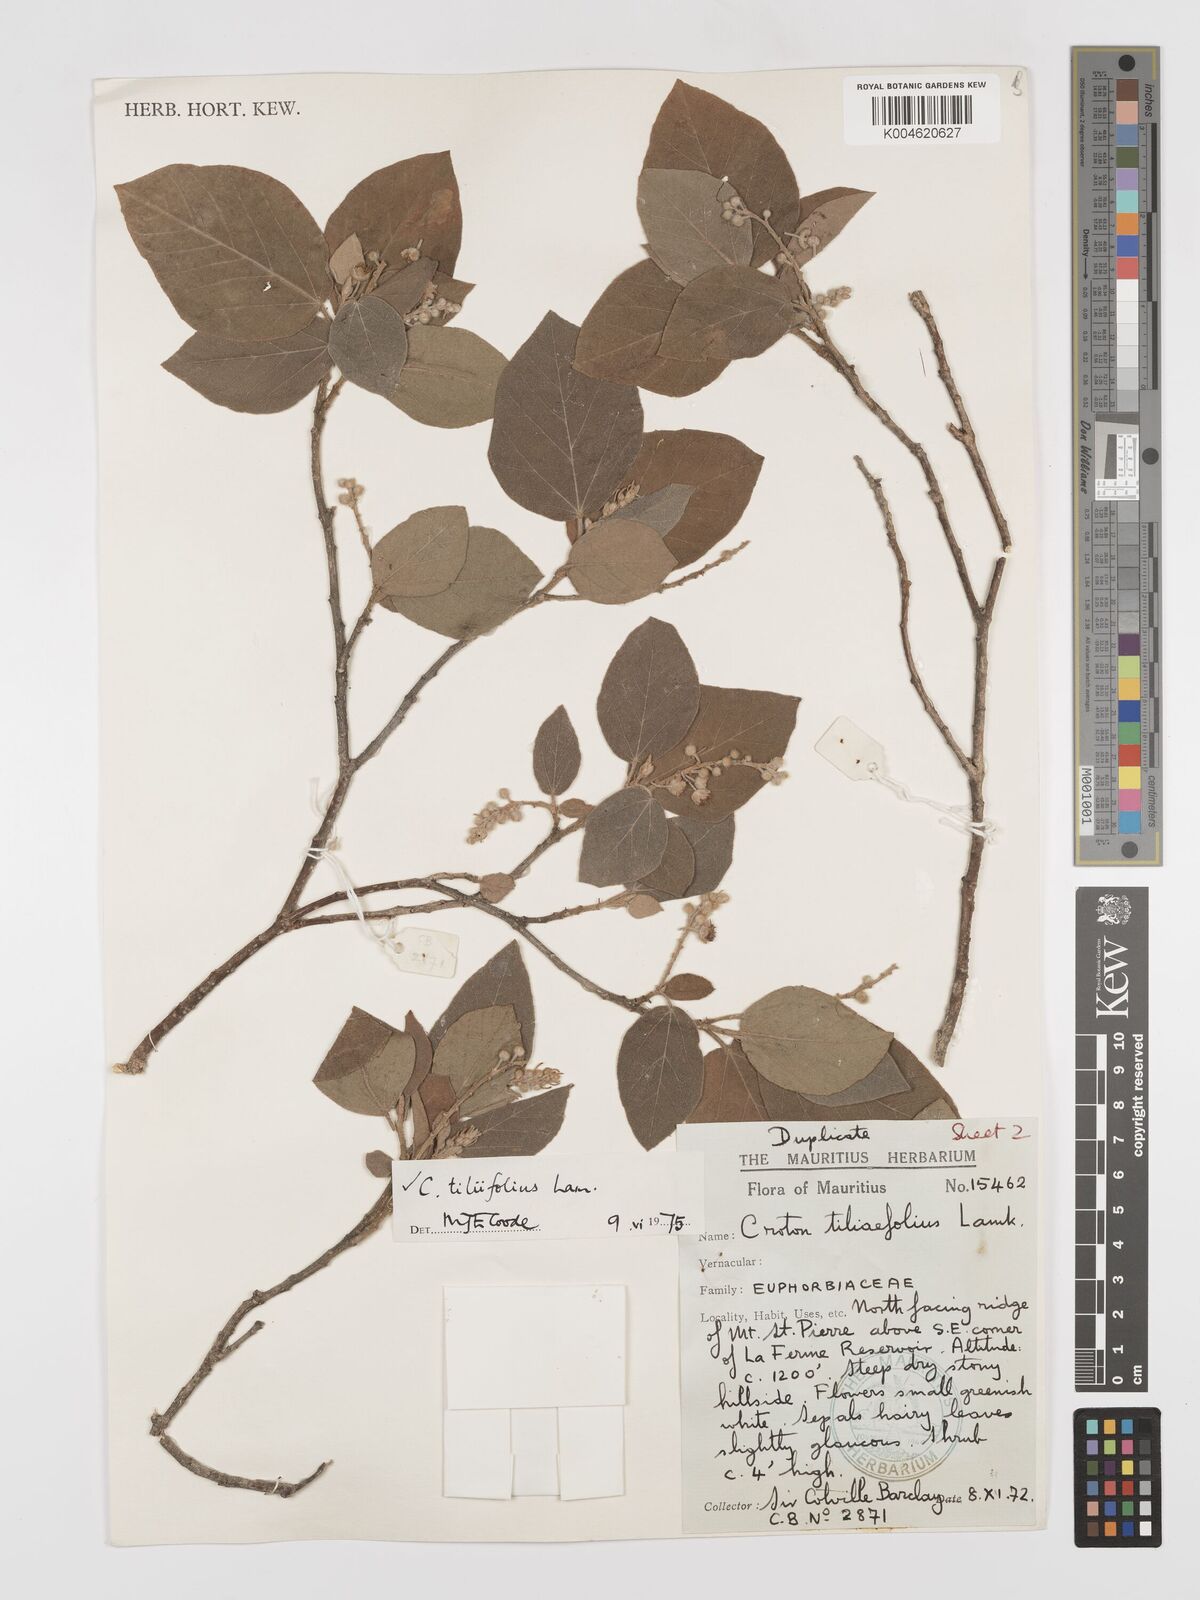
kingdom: Plantae
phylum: Tracheophyta
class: Magnoliopsida
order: Malpighiales
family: Euphorbiaceae
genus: Croton
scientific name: Croton
